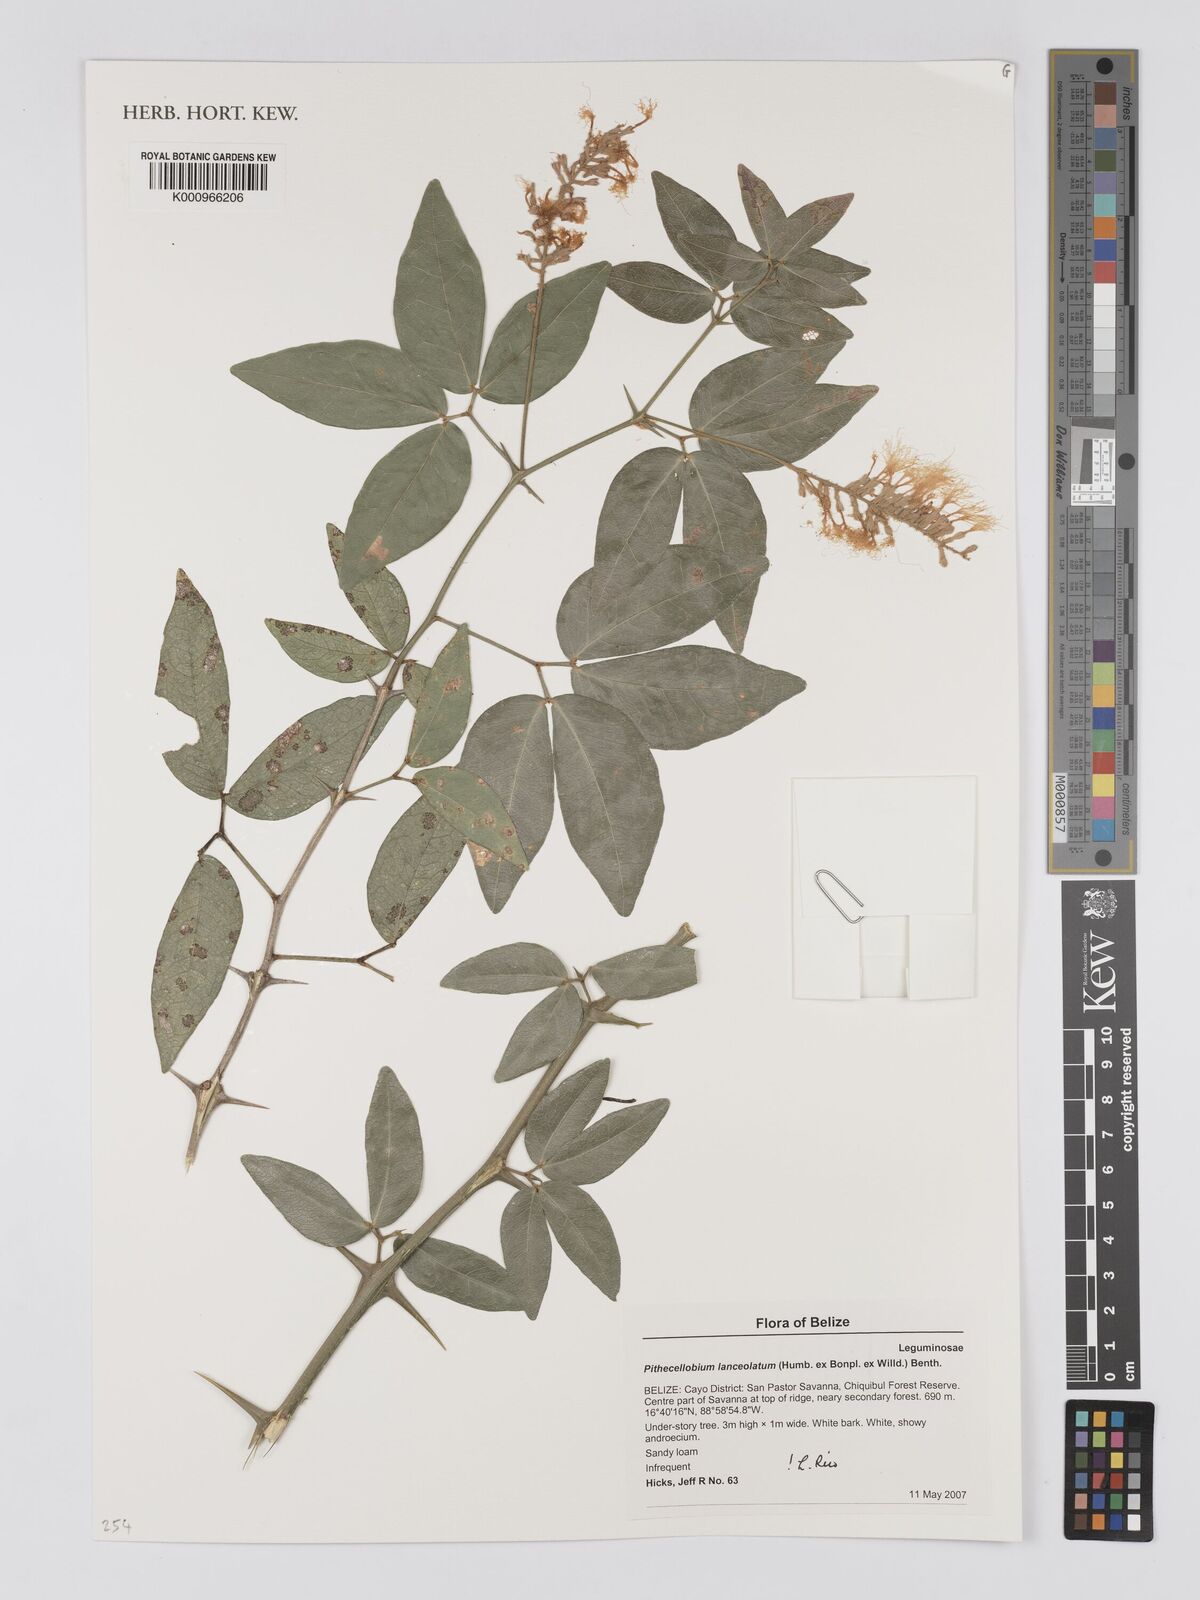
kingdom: Plantae
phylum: Tracheophyta
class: Magnoliopsida
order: Fabales
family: Fabaceae
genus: Pithecellobium
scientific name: Pithecellobium lanceolatum
